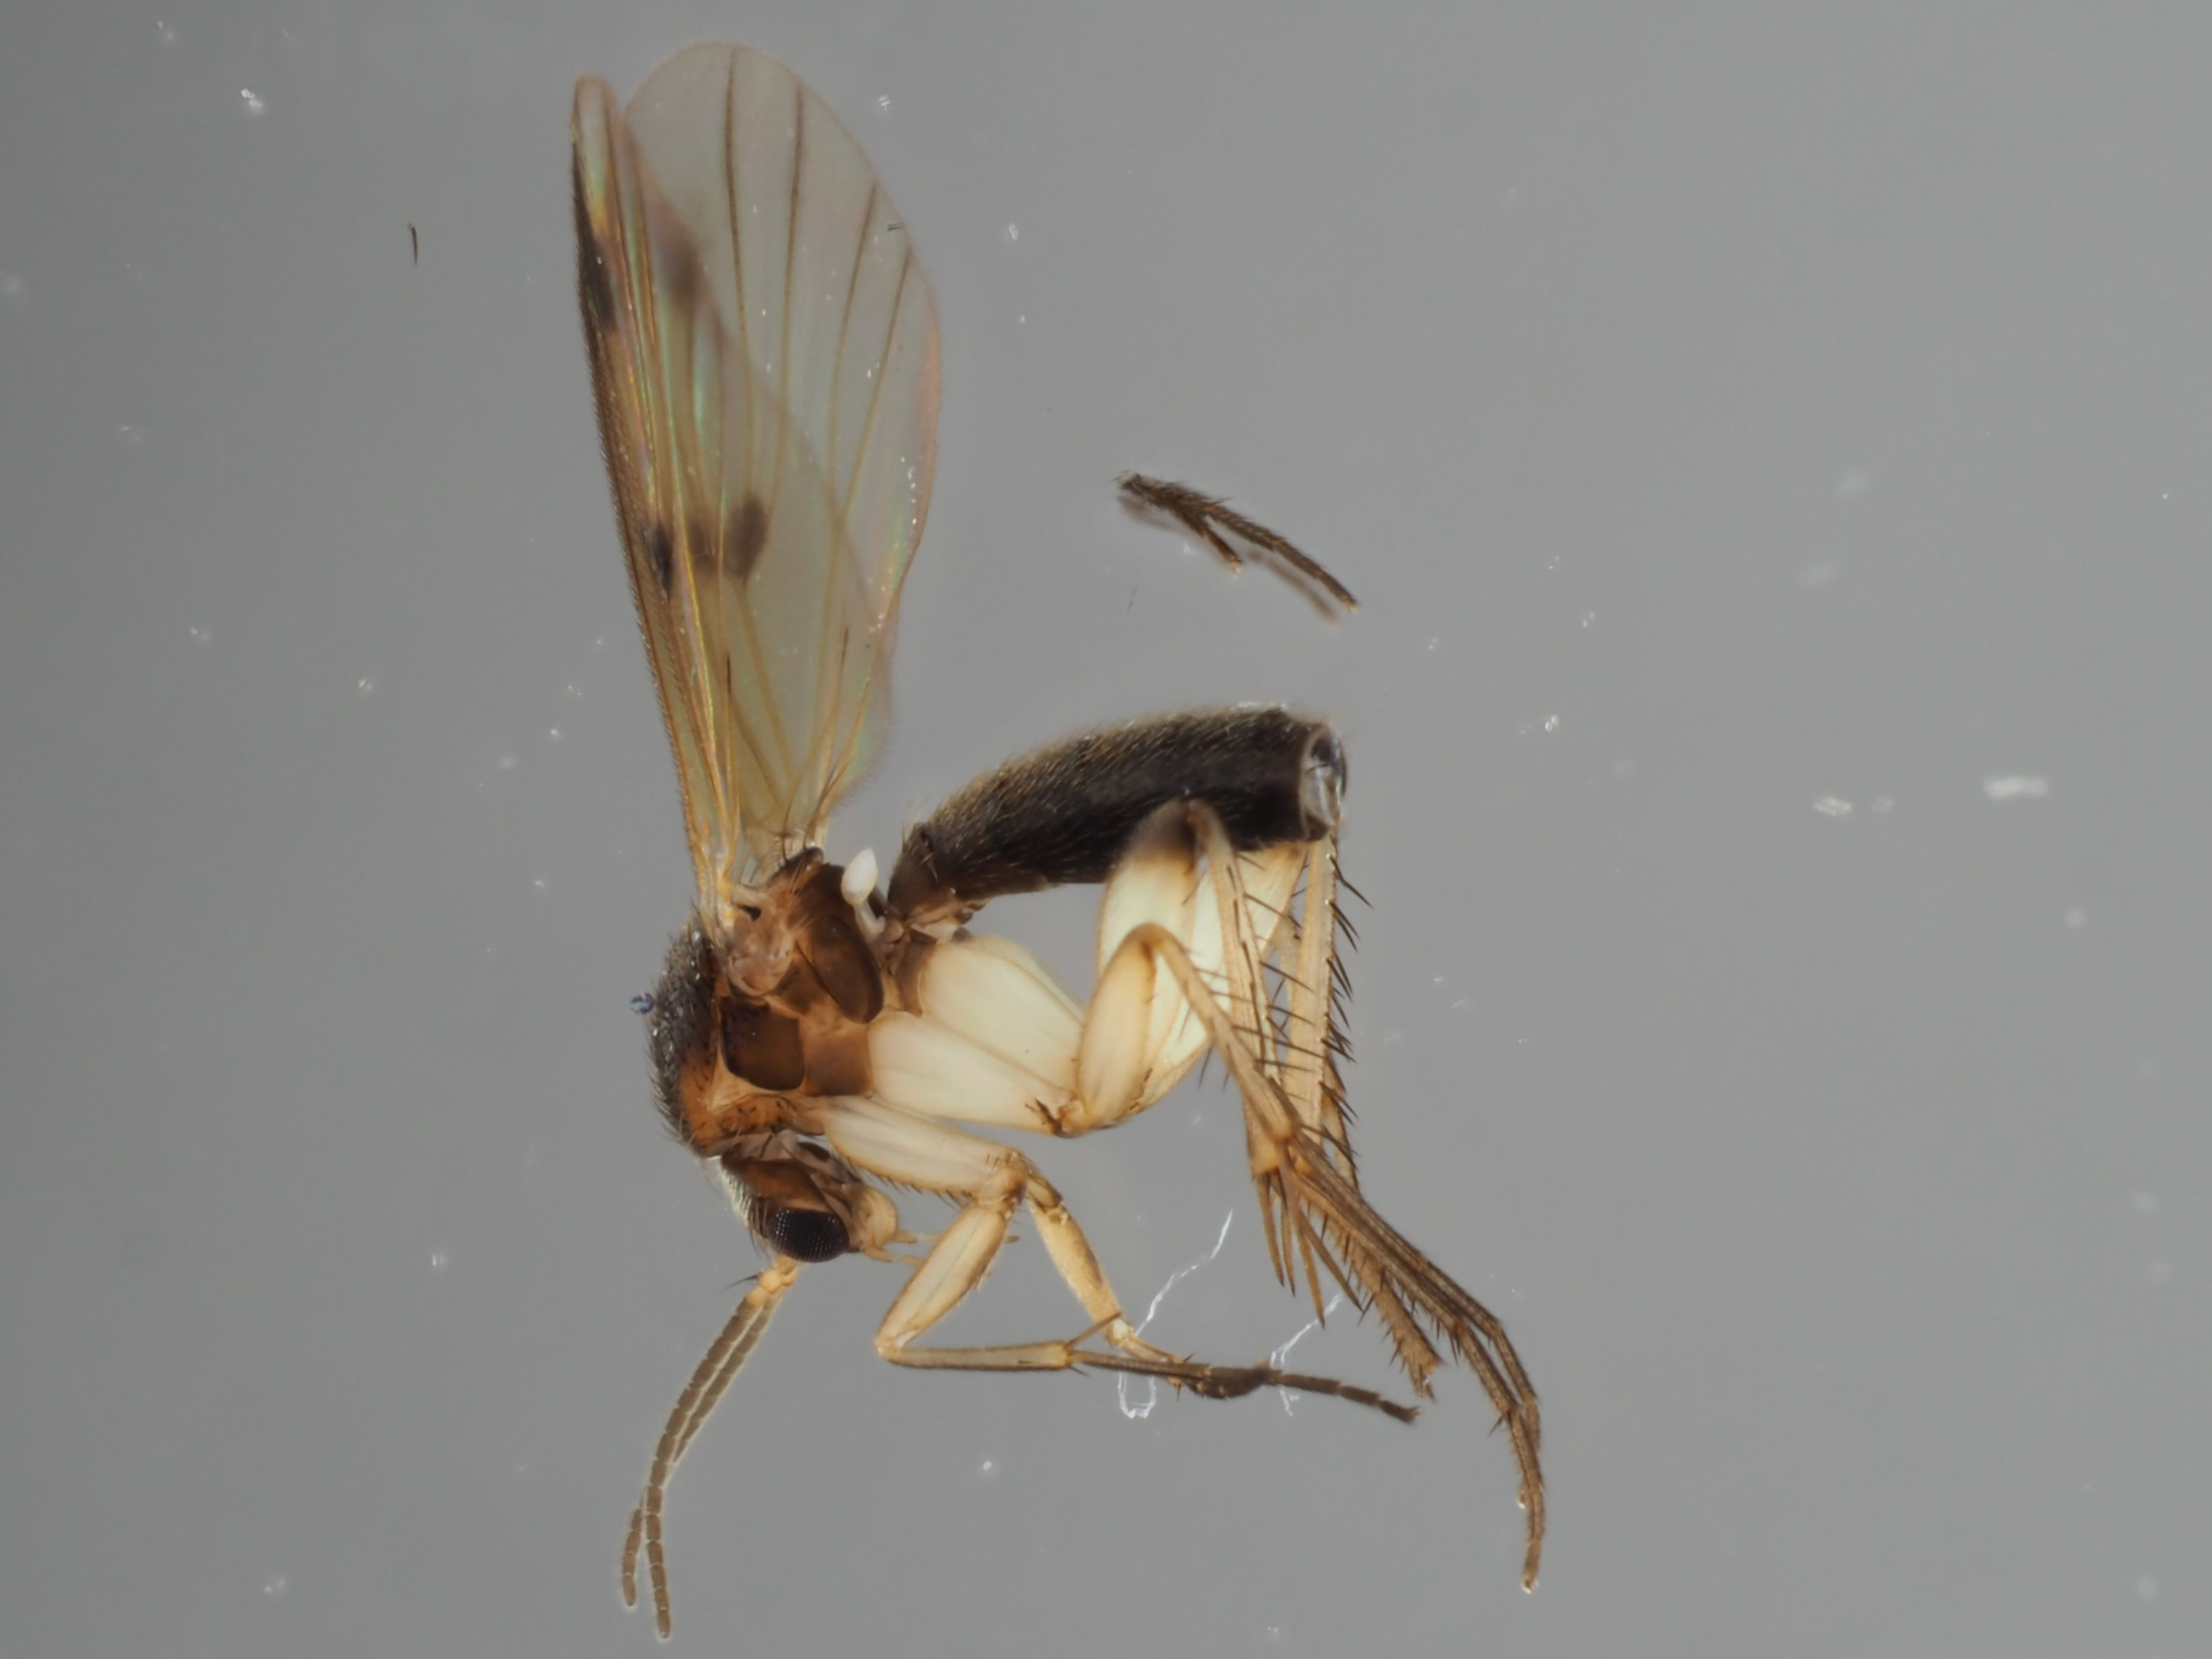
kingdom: Animalia
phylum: Arthropoda
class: Insecta
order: Diptera
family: Mycetophilidae
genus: Mycetophila
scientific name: Mycetophila xanthopyga
